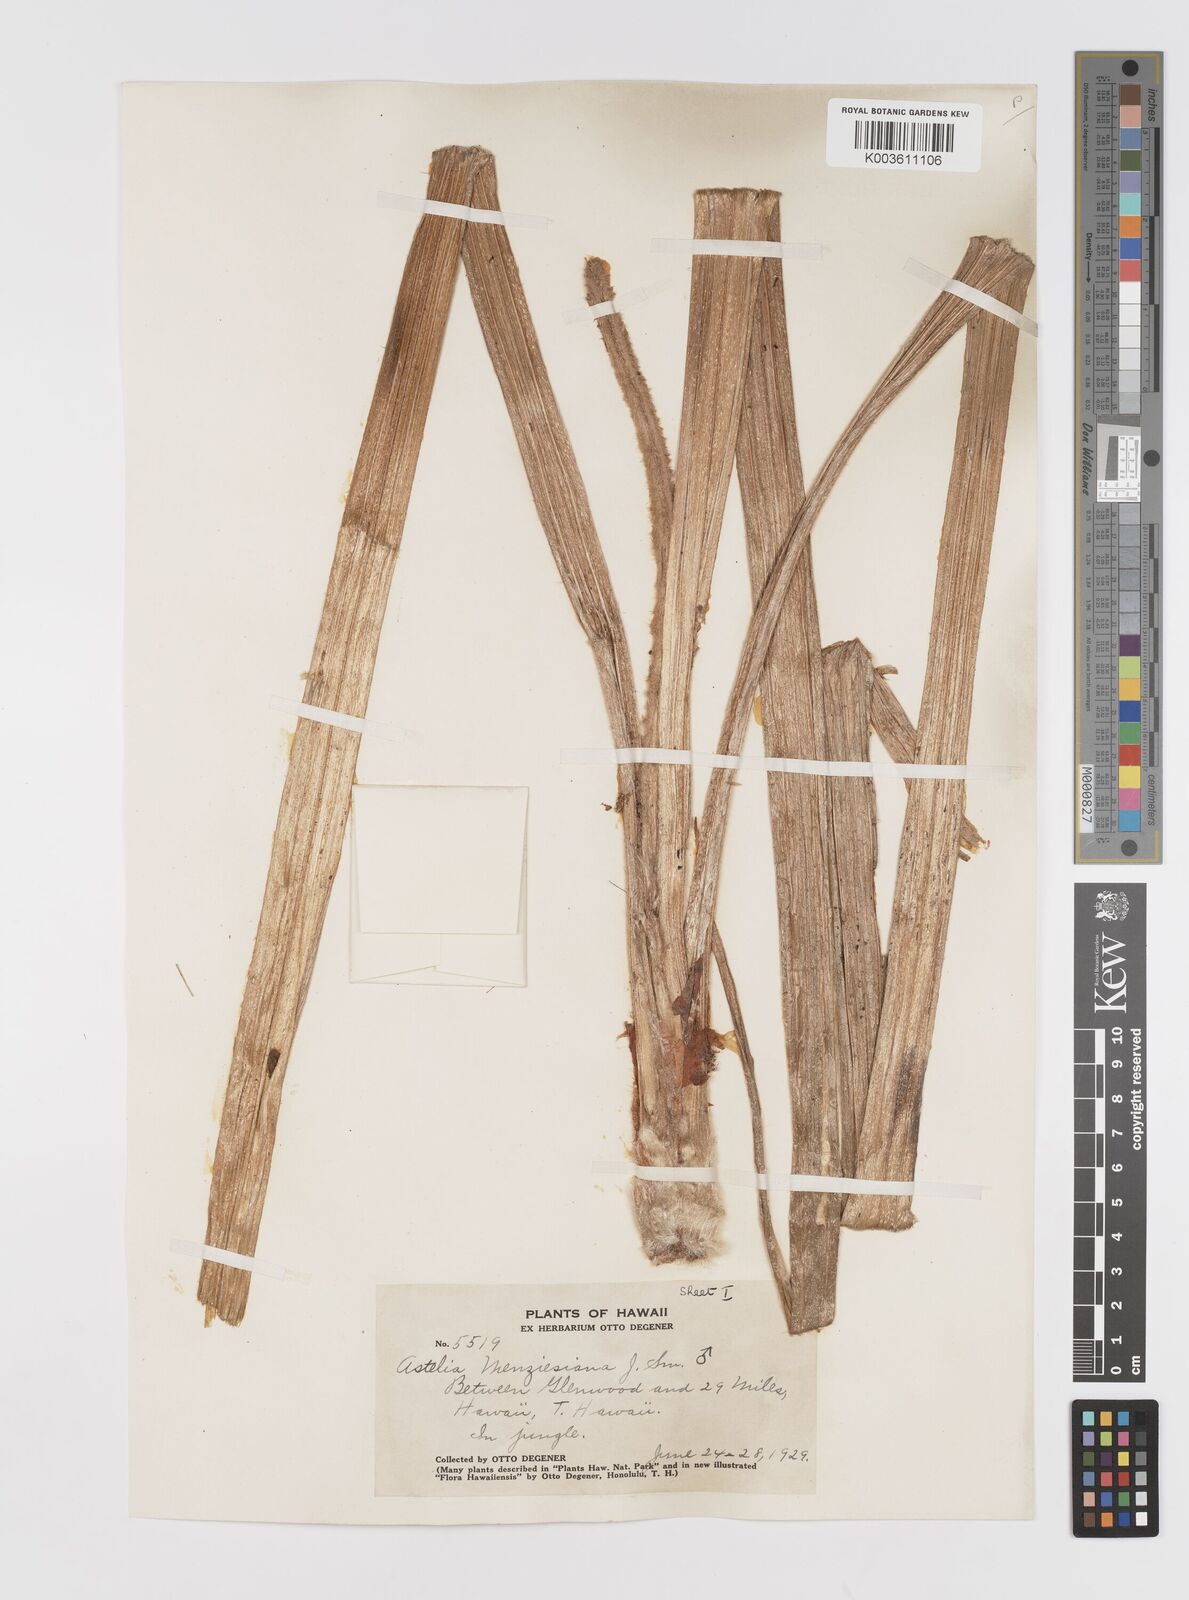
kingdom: Plantae
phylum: Tracheophyta
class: Liliopsida
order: Asparagales
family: Asteliaceae
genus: Astelia
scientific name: Astelia menziesiana
